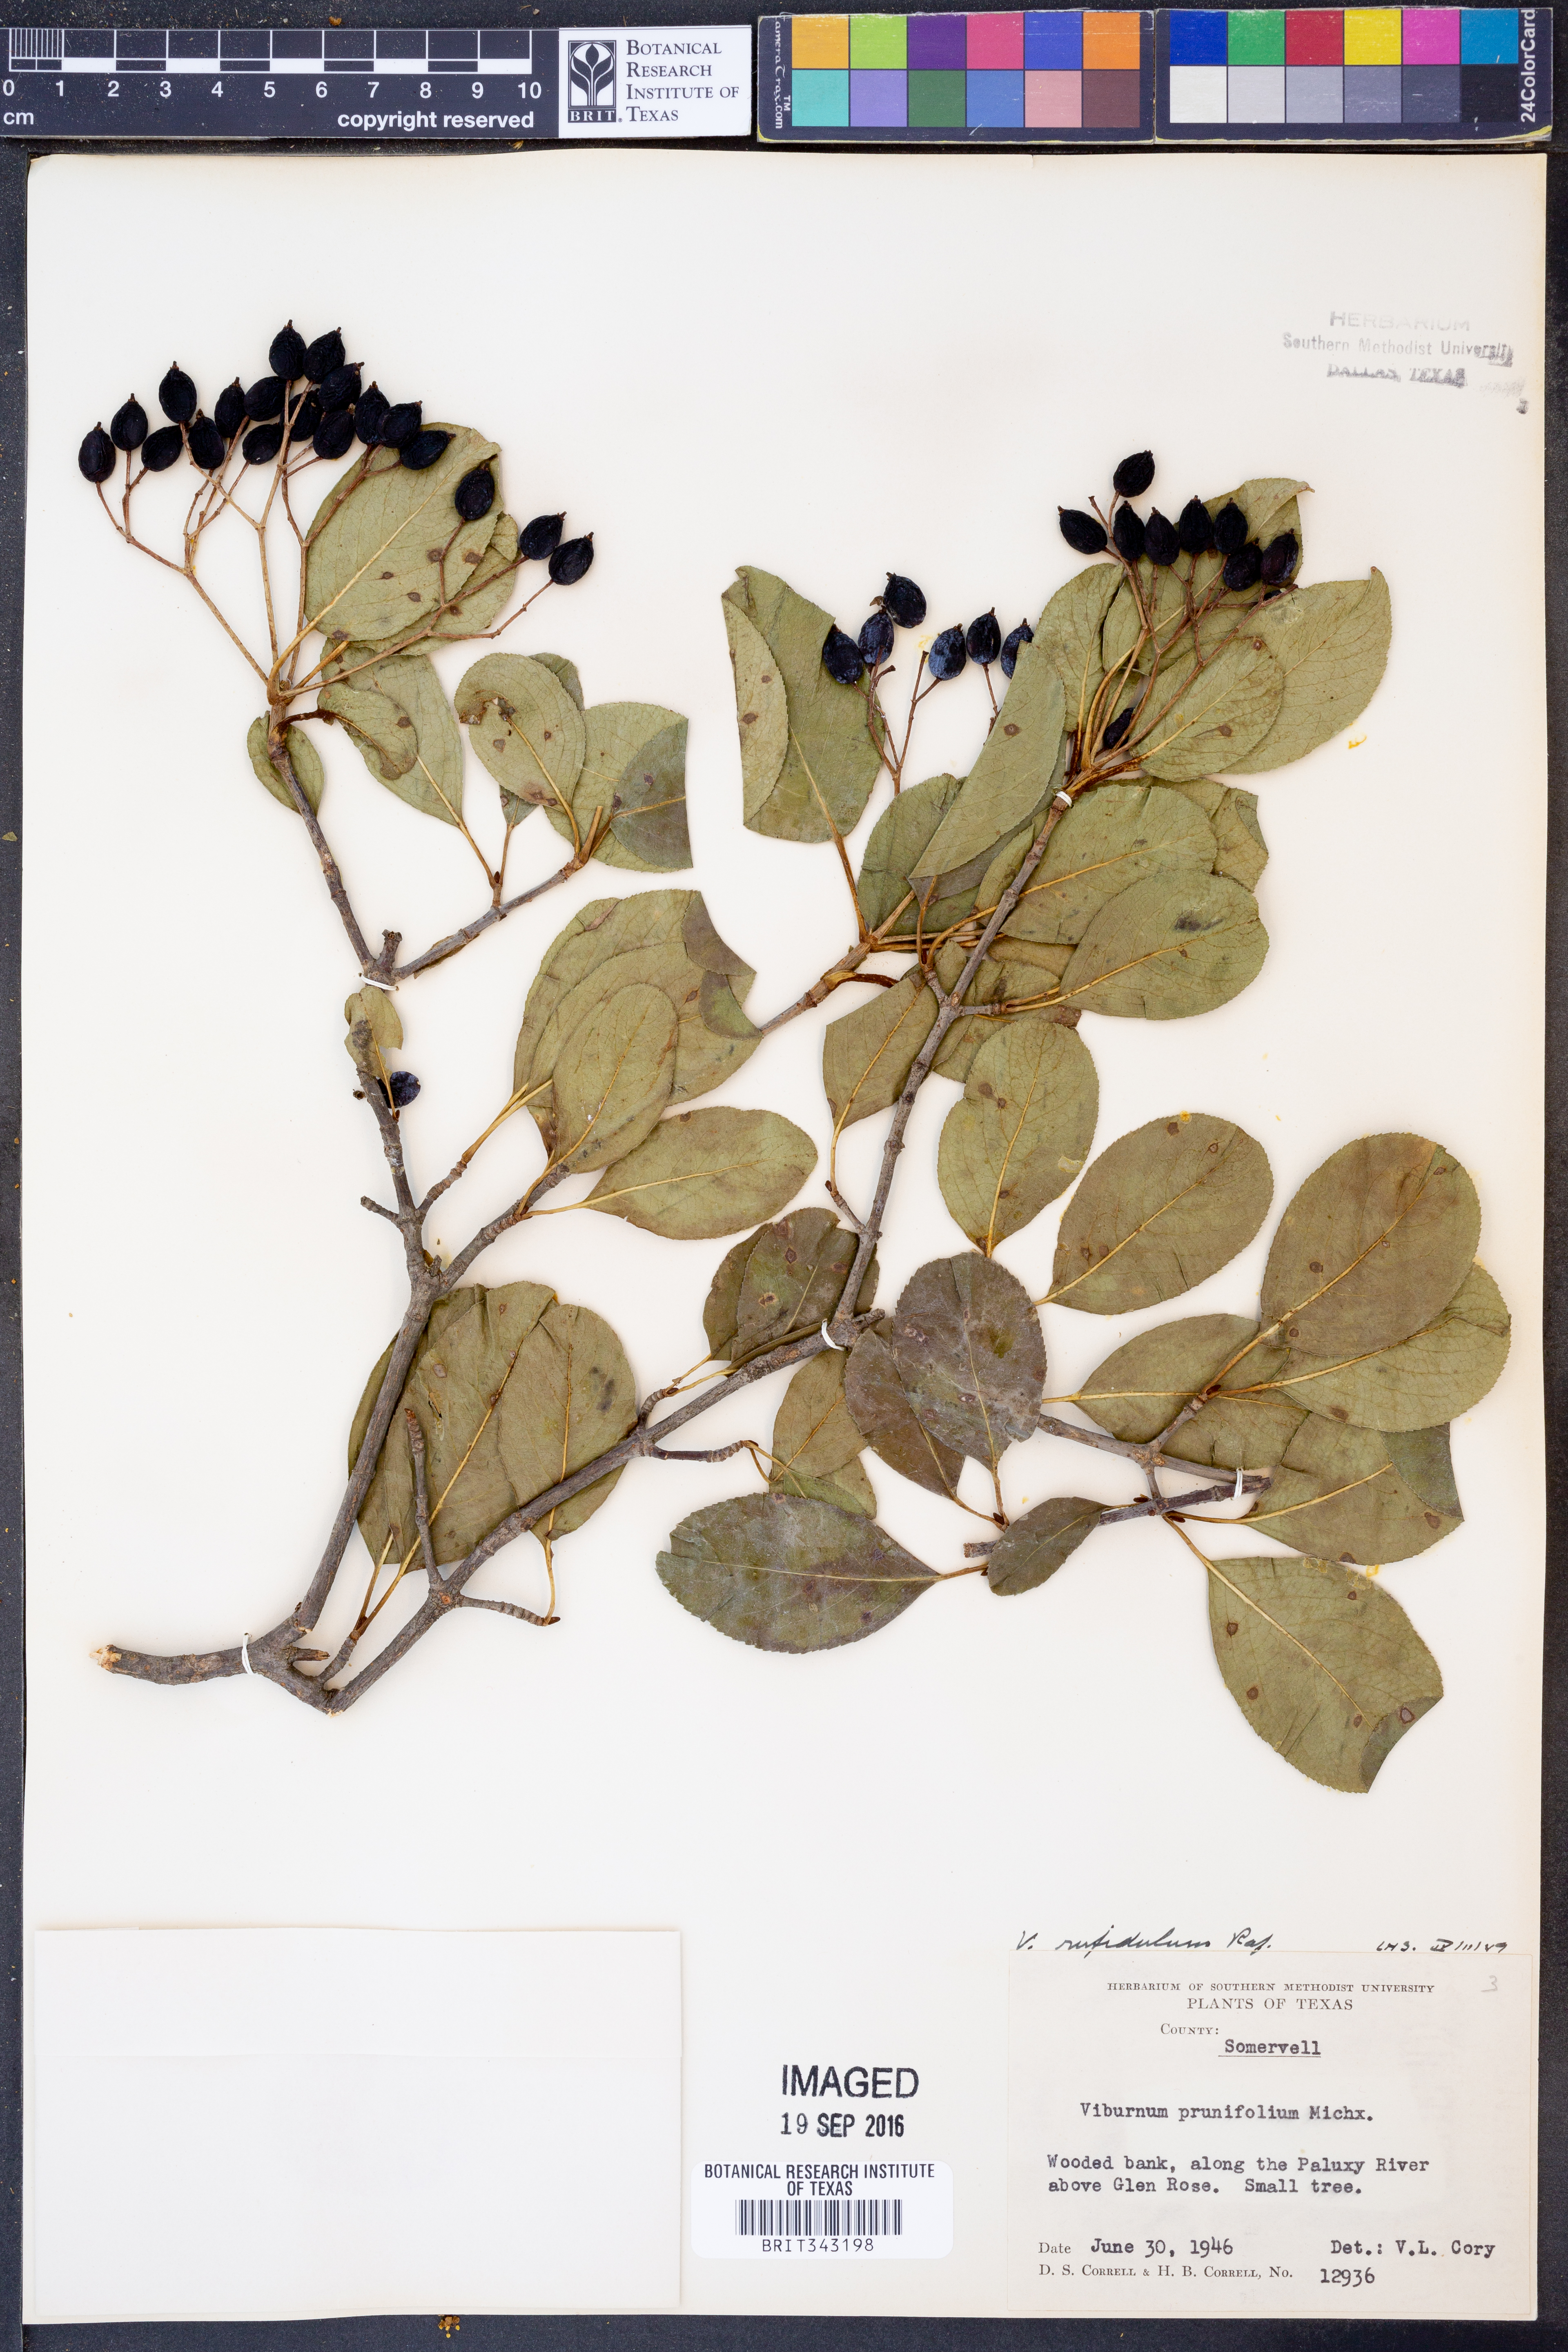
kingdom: Plantae
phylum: Tracheophyta
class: Magnoliopsida
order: Dipsacales
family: Viburnaceae
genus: Viburnum
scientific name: Viburnum rufidulum
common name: Blue haw
